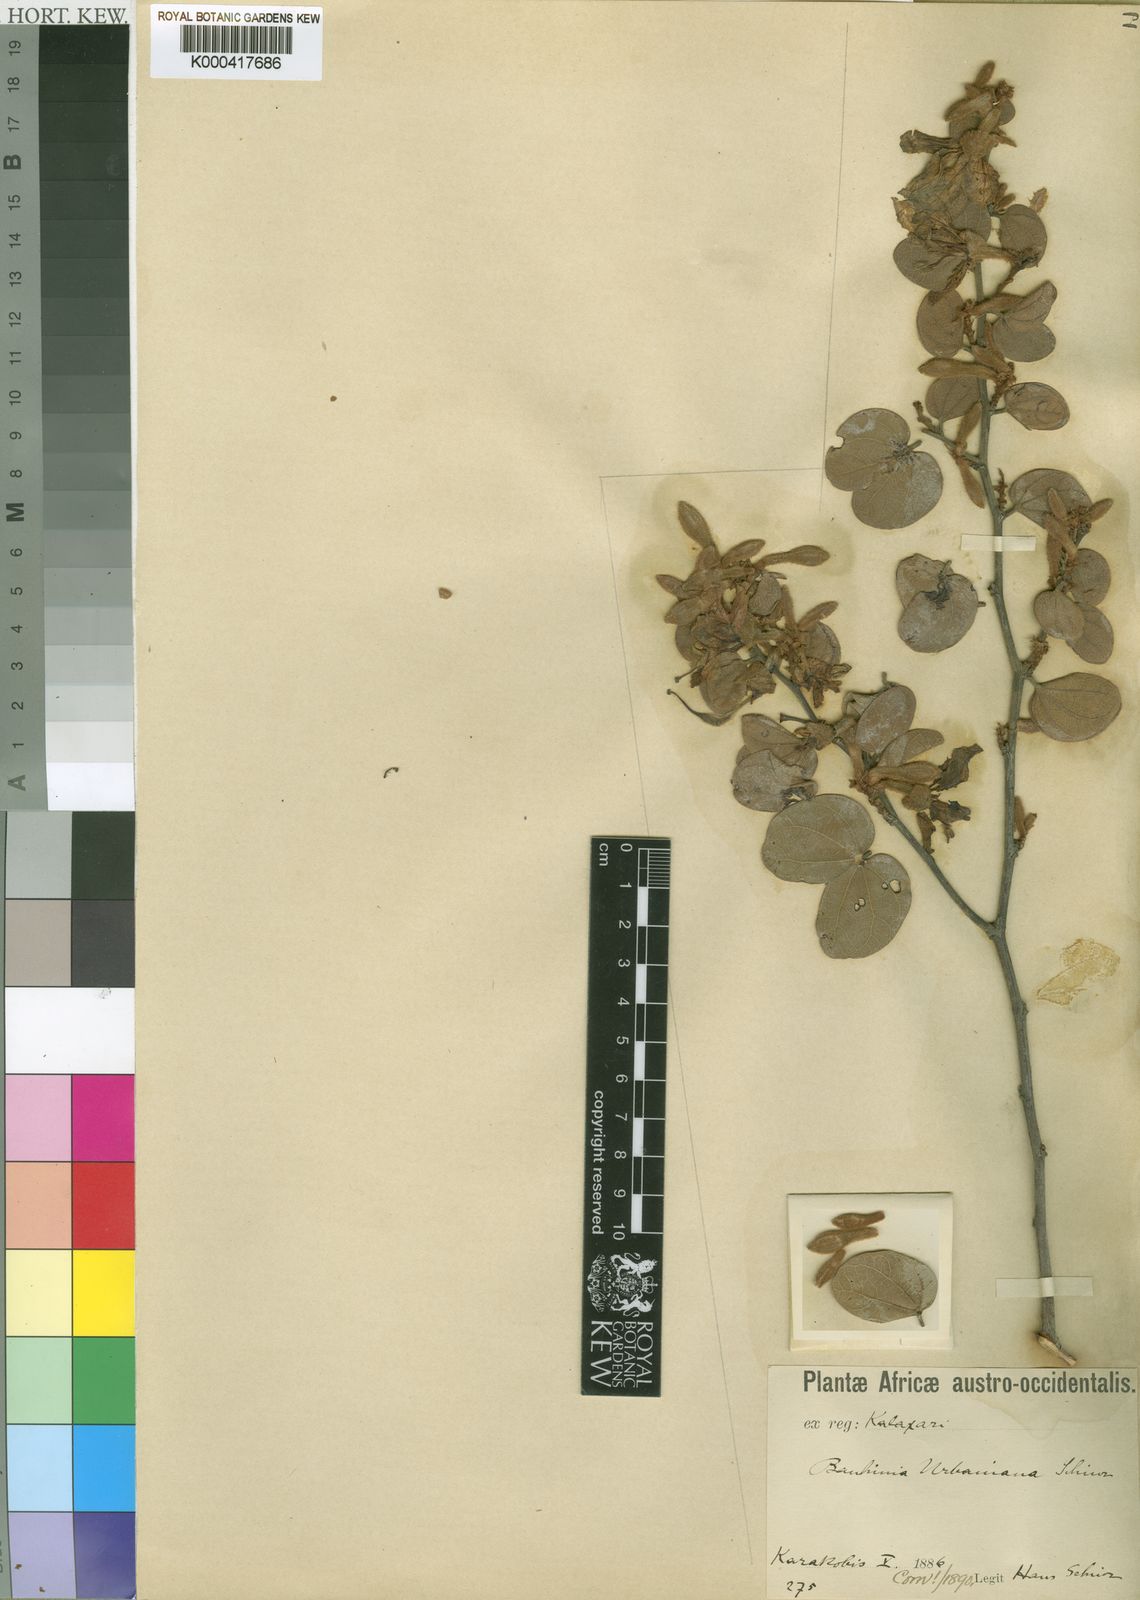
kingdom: Plantae
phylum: Tracheophyta
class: Magnoliopsida
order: Fabales
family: Fabaceae
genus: Bauhinia
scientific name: Bauhinia urbaniana
